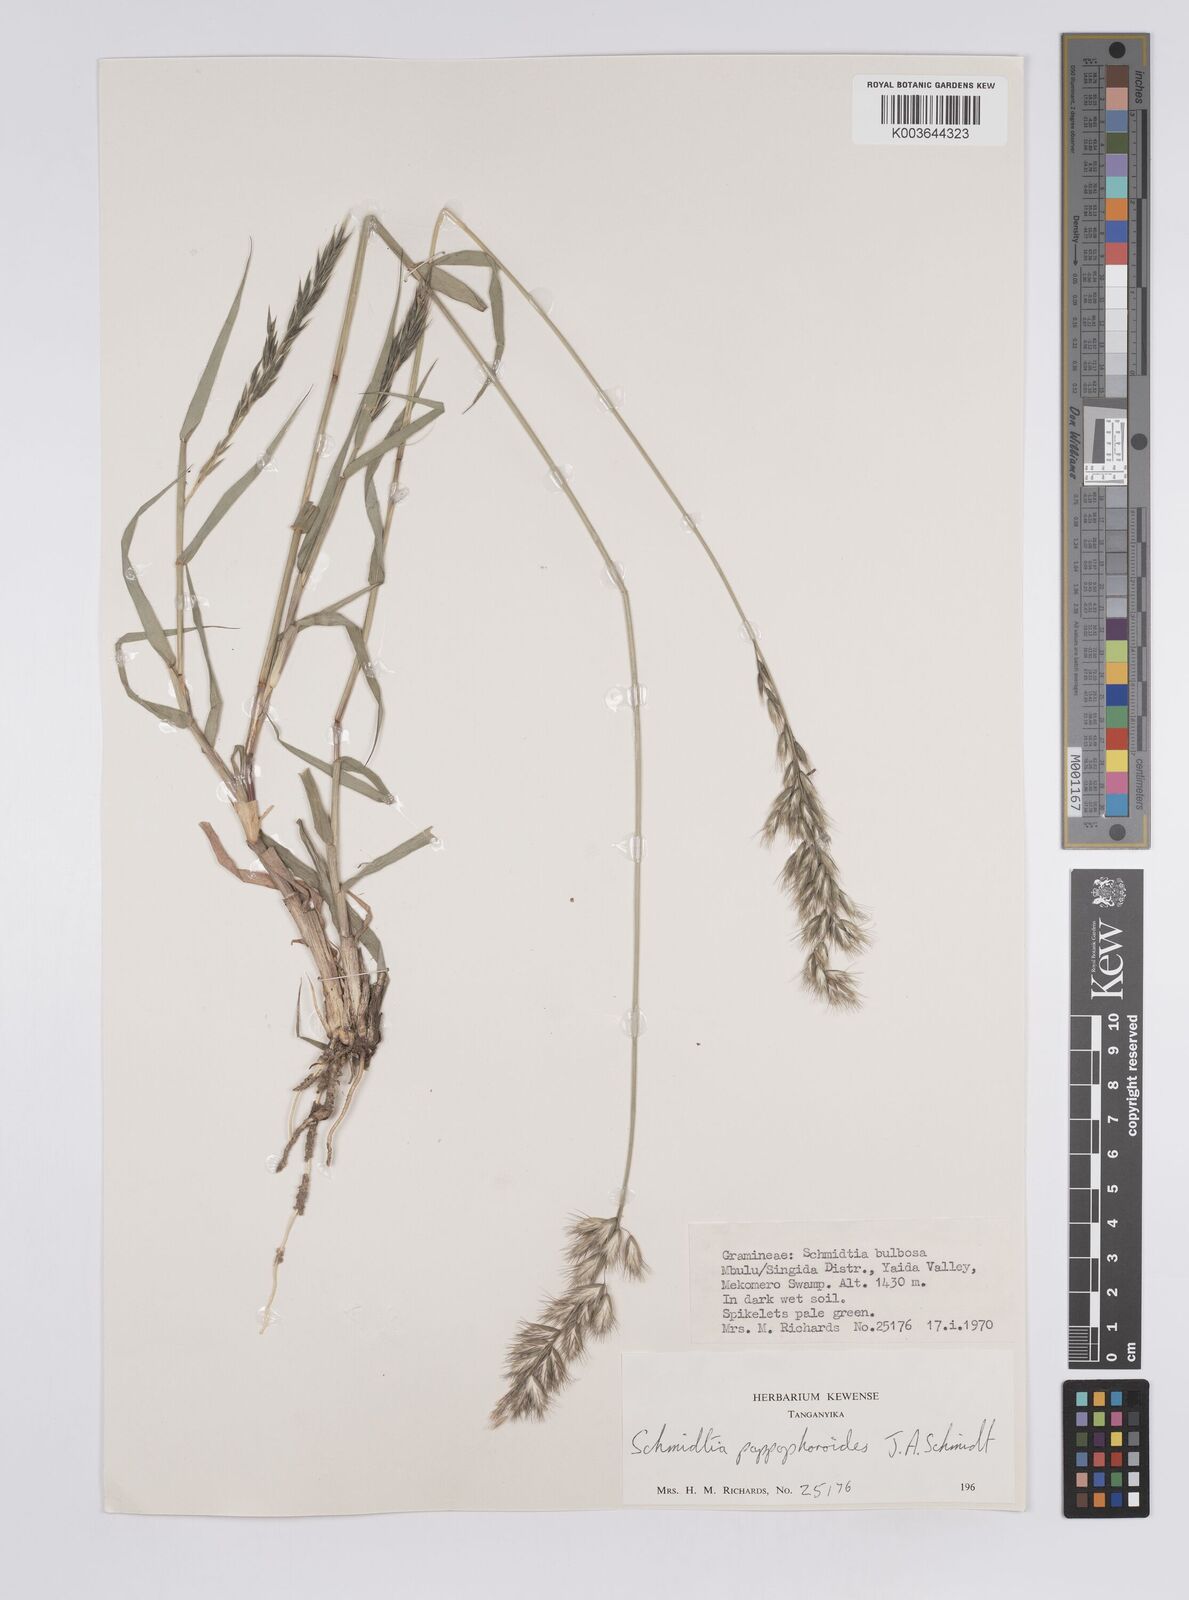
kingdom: Plantae
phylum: Tracheophyta
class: Liliopsida
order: Poales
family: Poaceae
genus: Schmidtia
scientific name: Schmidtia pappophoroides
